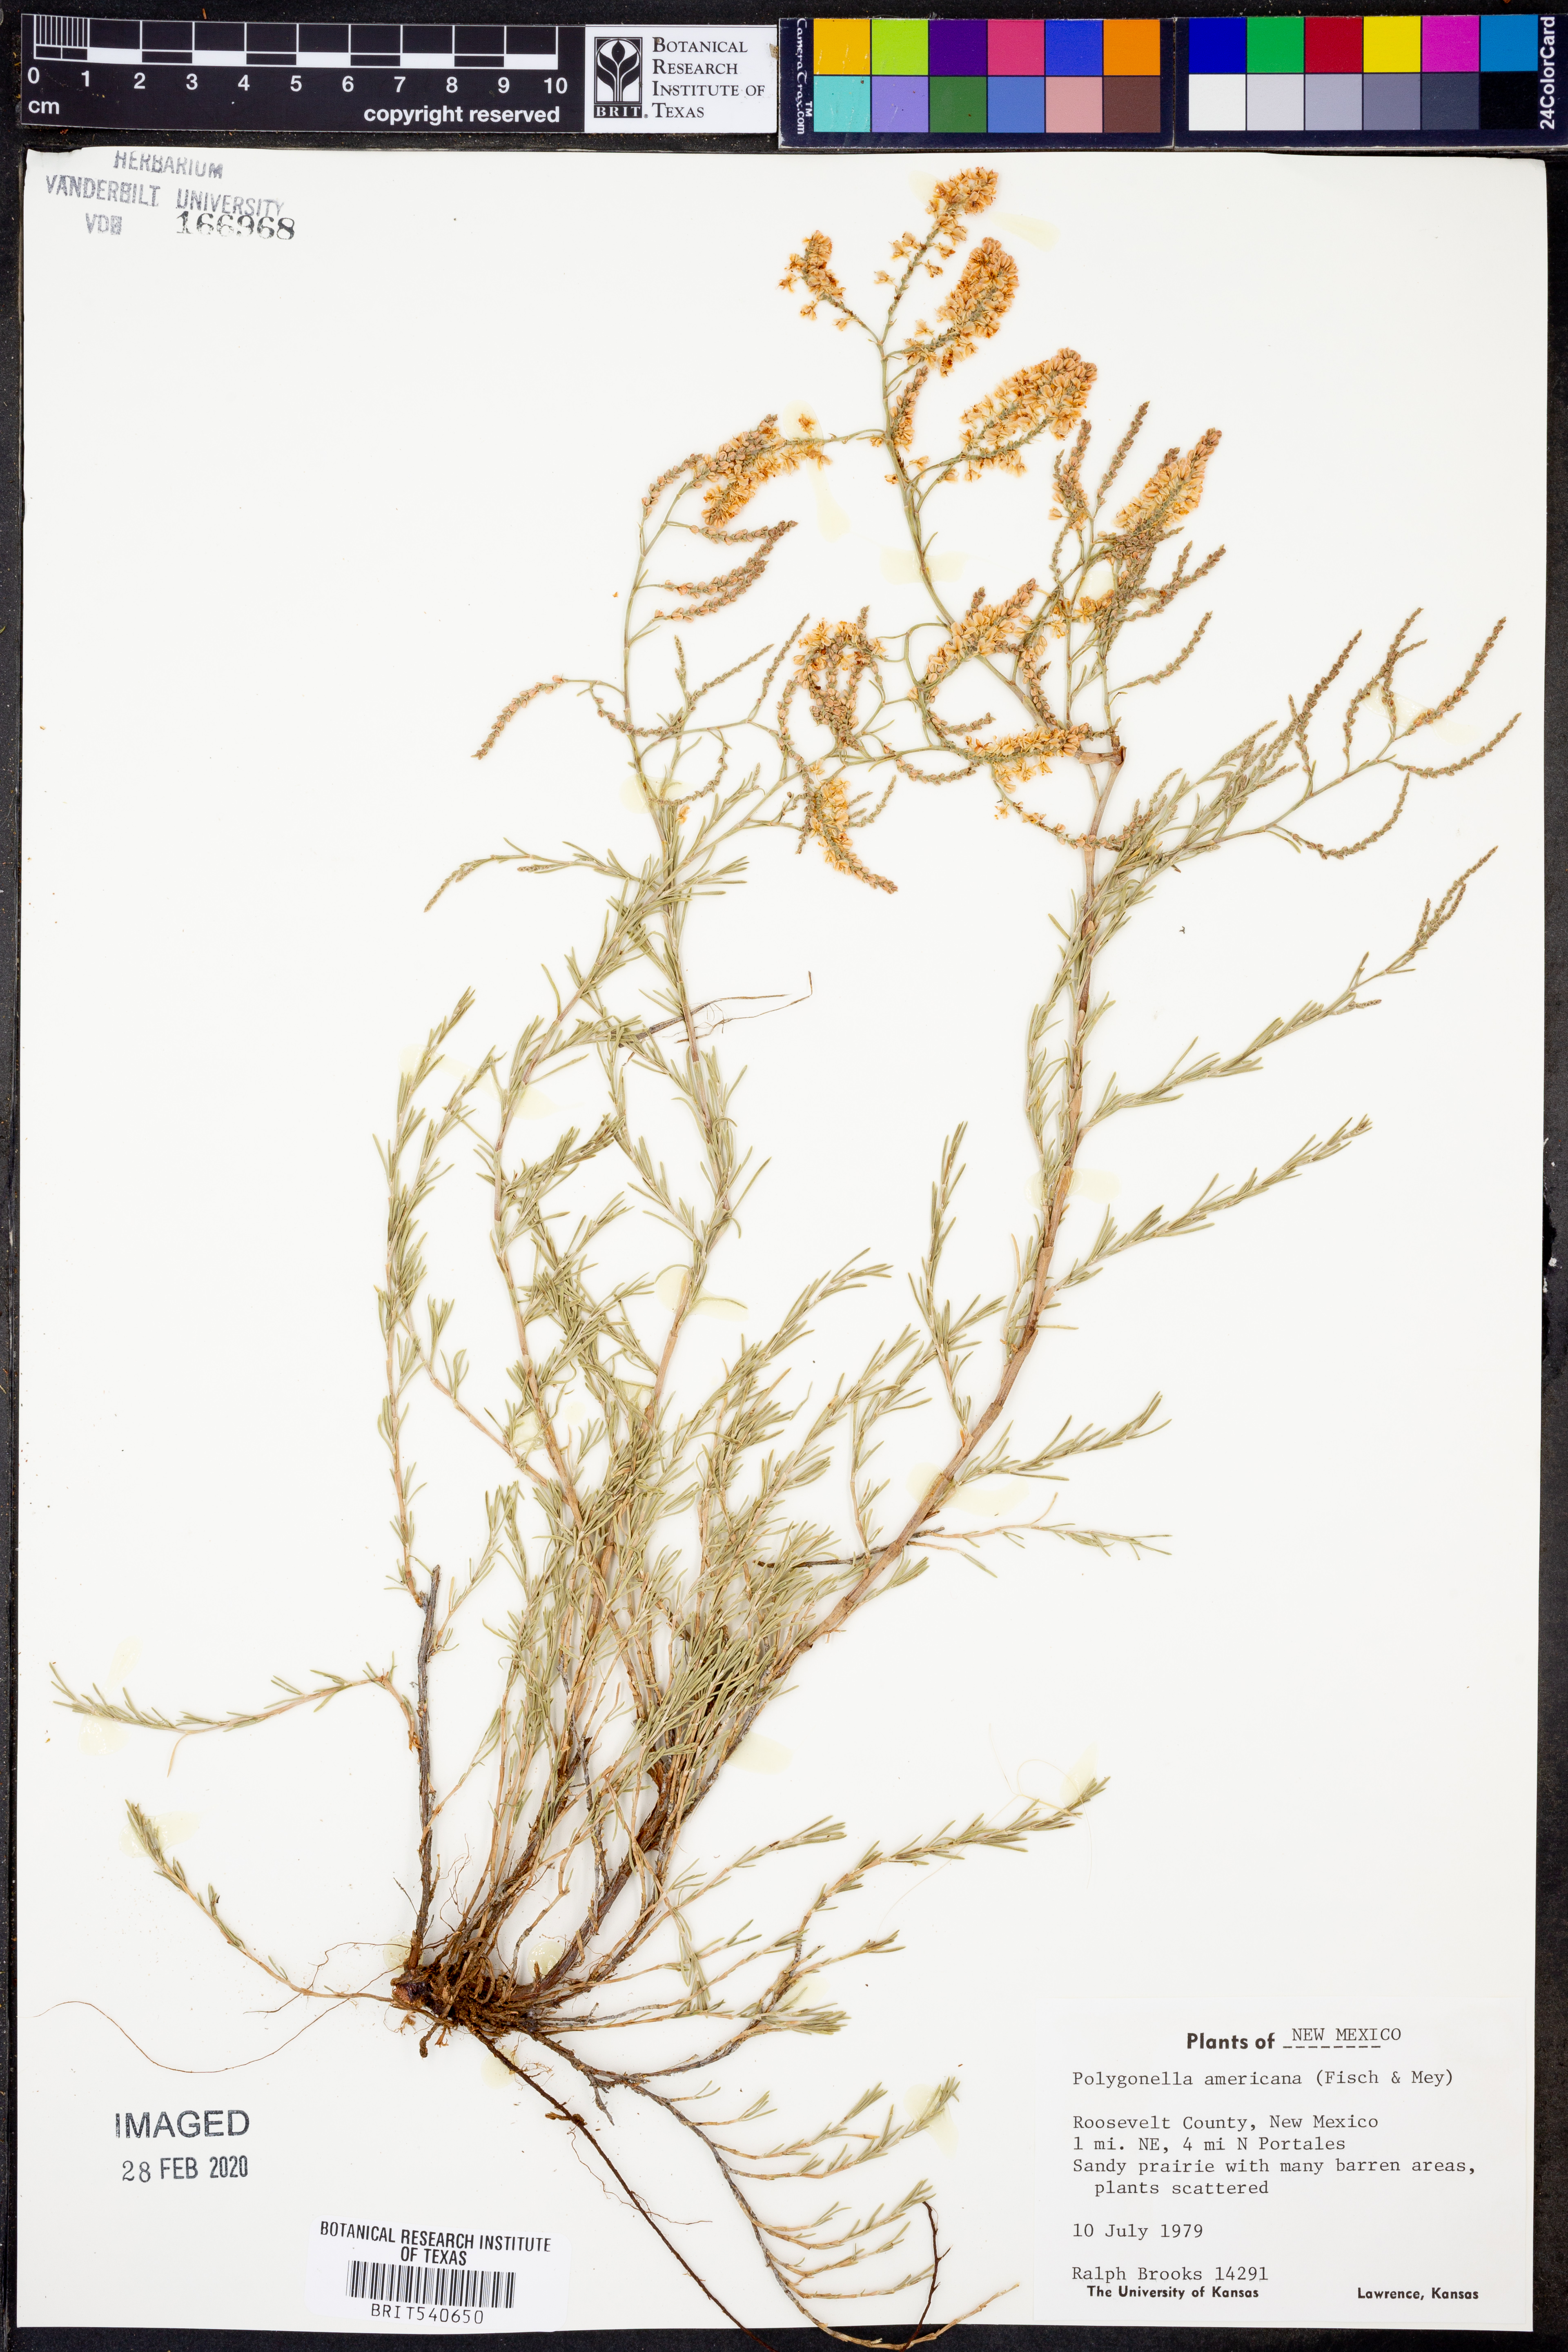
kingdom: Plantae
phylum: Tracheophyta
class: Magnoliopsida
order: Caryophyllales
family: Polygonaceae
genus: Polygonella
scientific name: Polygonella americana
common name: Southern jointweed
